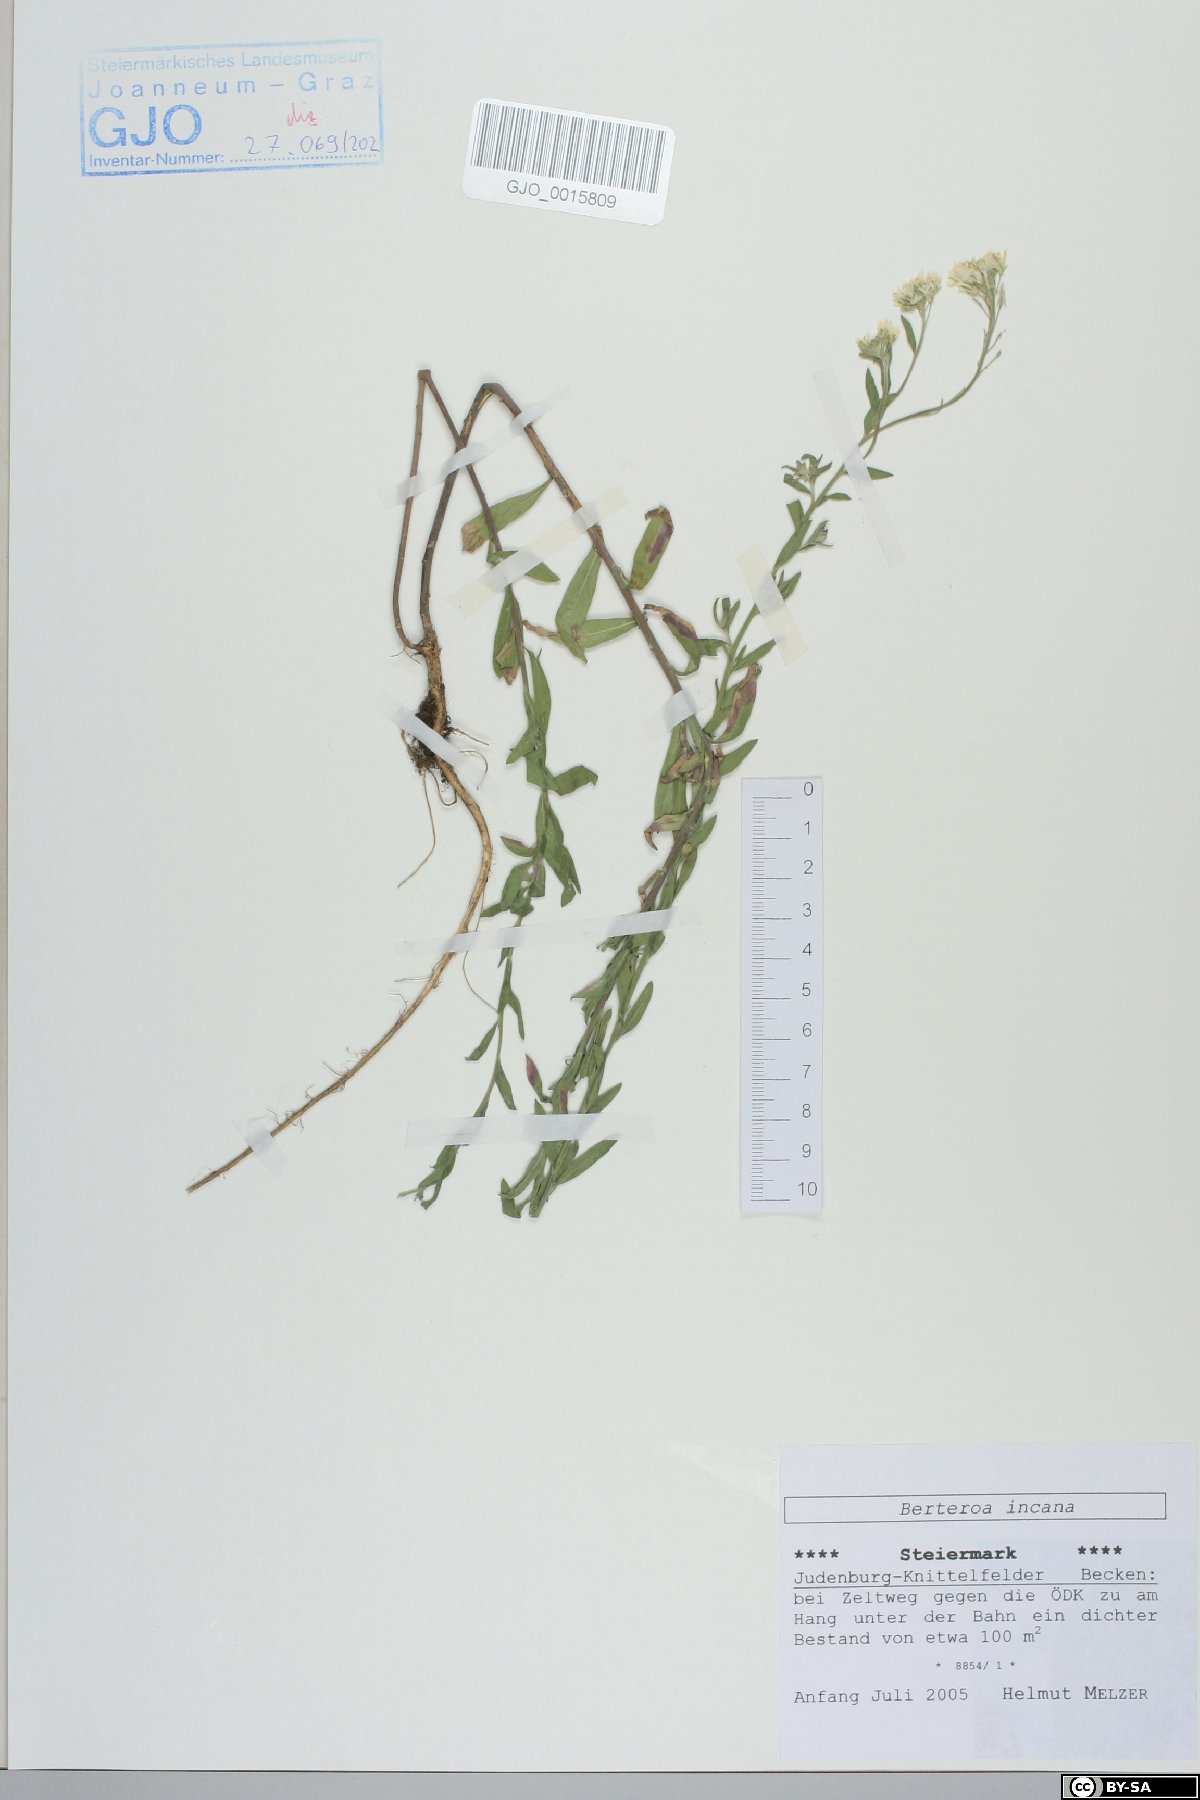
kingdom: Plantae
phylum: Tracheophyta
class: Magnoliopsida
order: Brassicales
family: Brassicaceae
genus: Berteroa
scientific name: Berteroa incana
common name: Hoary alison
